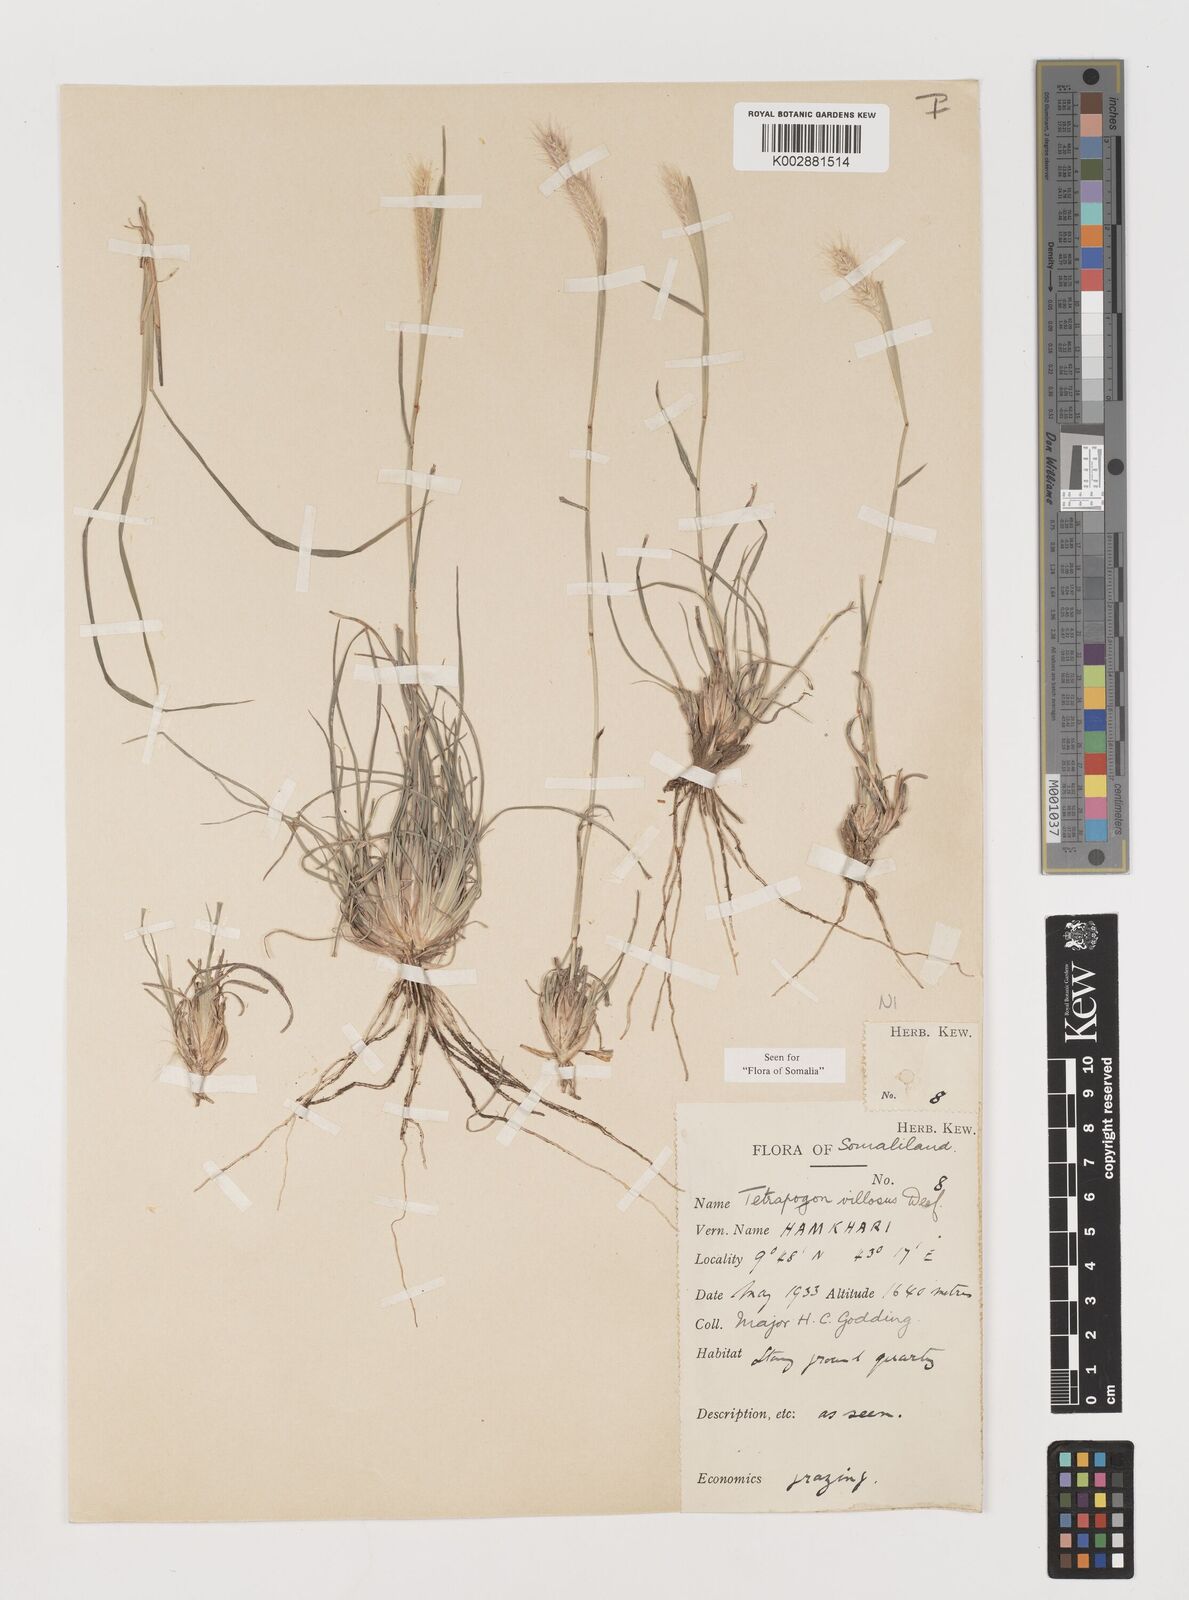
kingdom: Plantae
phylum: Tracheophyta
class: Liliopsida
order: Poales
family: Poaceae
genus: Tetrapogon
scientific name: Tetrapogon villosus
